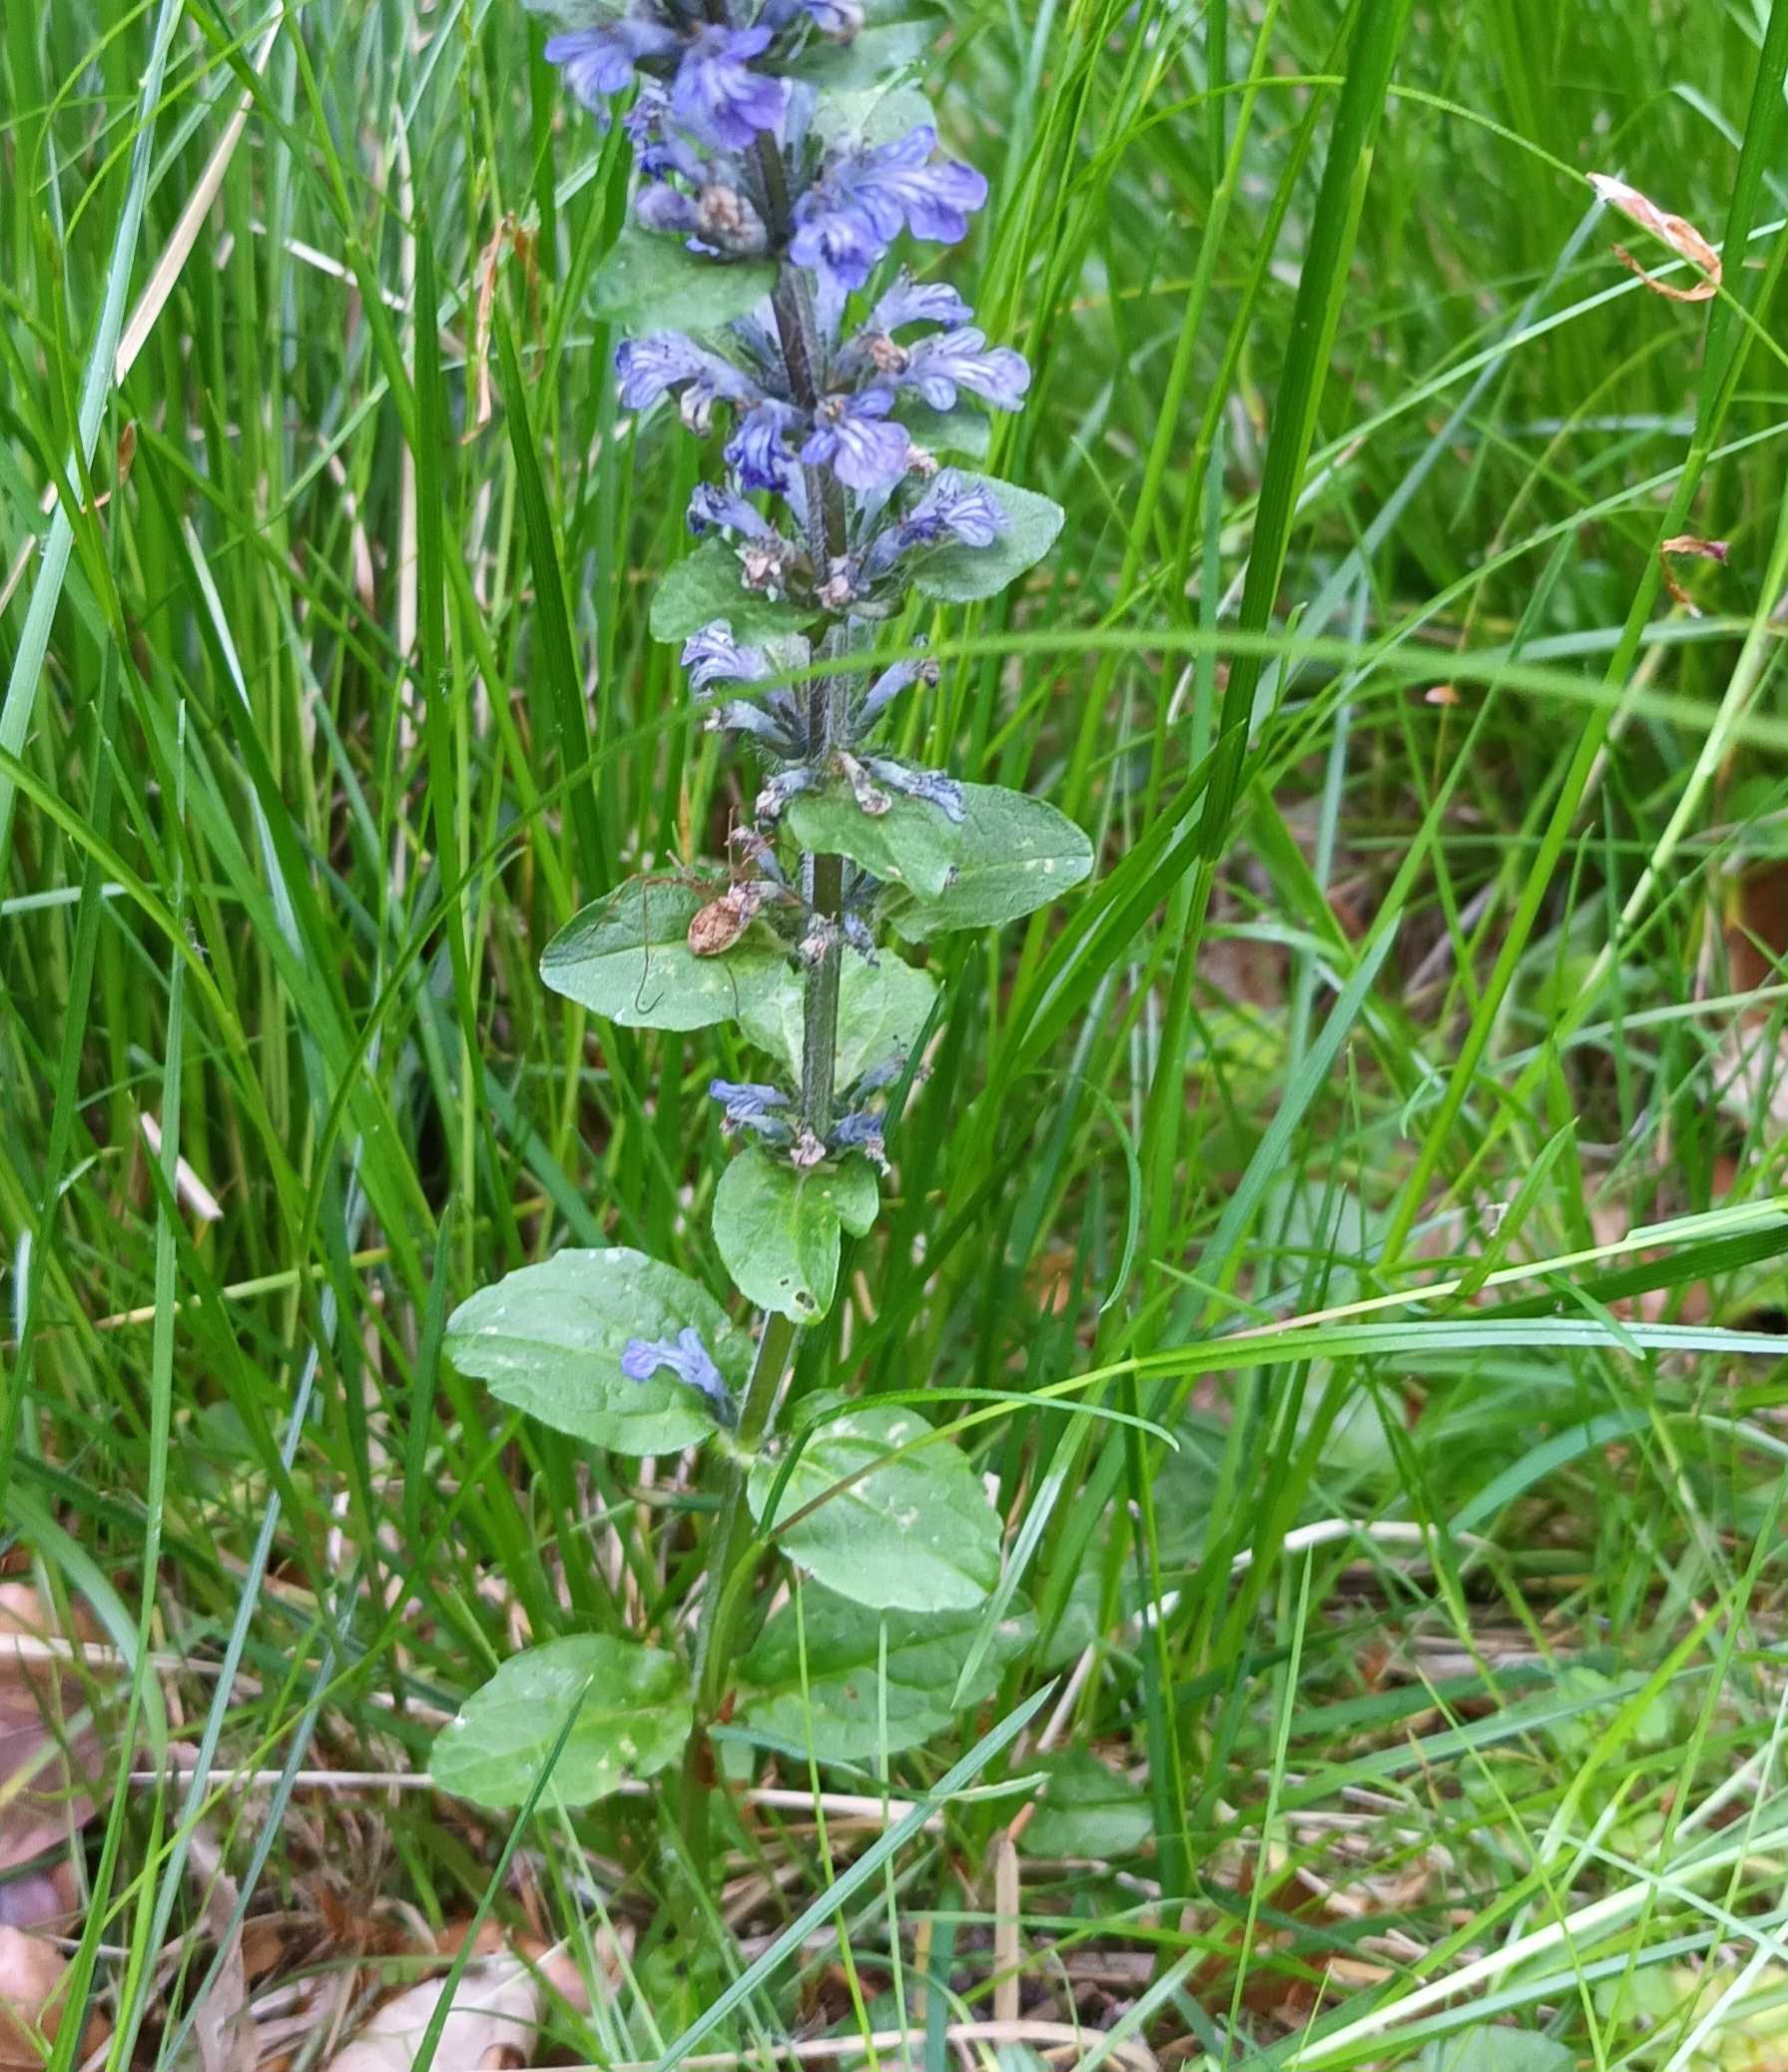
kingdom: Plantae
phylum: Tracheophyta
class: Magnoliopsida
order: Lamiales
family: Lamiaceae
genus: Ajuga
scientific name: Ajuga reptans
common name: Krybende læbeløs
